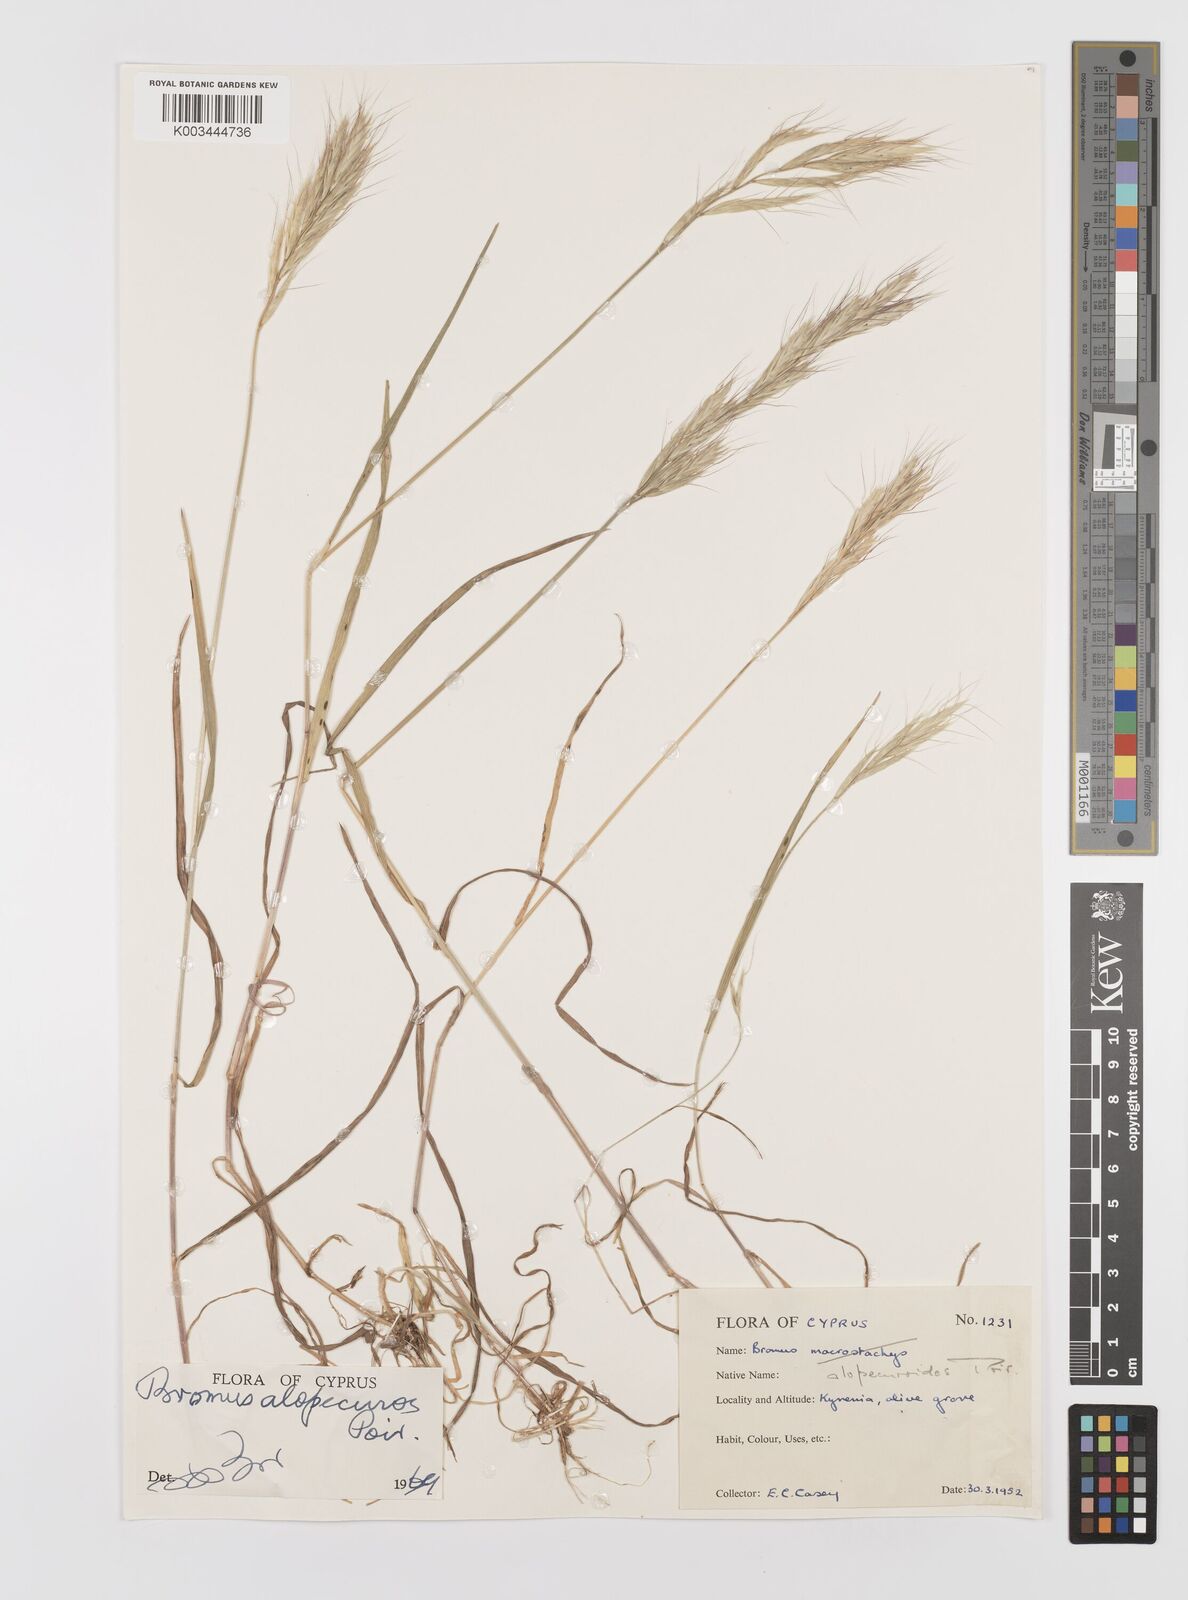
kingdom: Plantae
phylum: Tracheophyta
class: Liliopsida
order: Poales
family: Poaceae
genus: Bromus
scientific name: Bromus alopecuros
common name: Weedy brome
